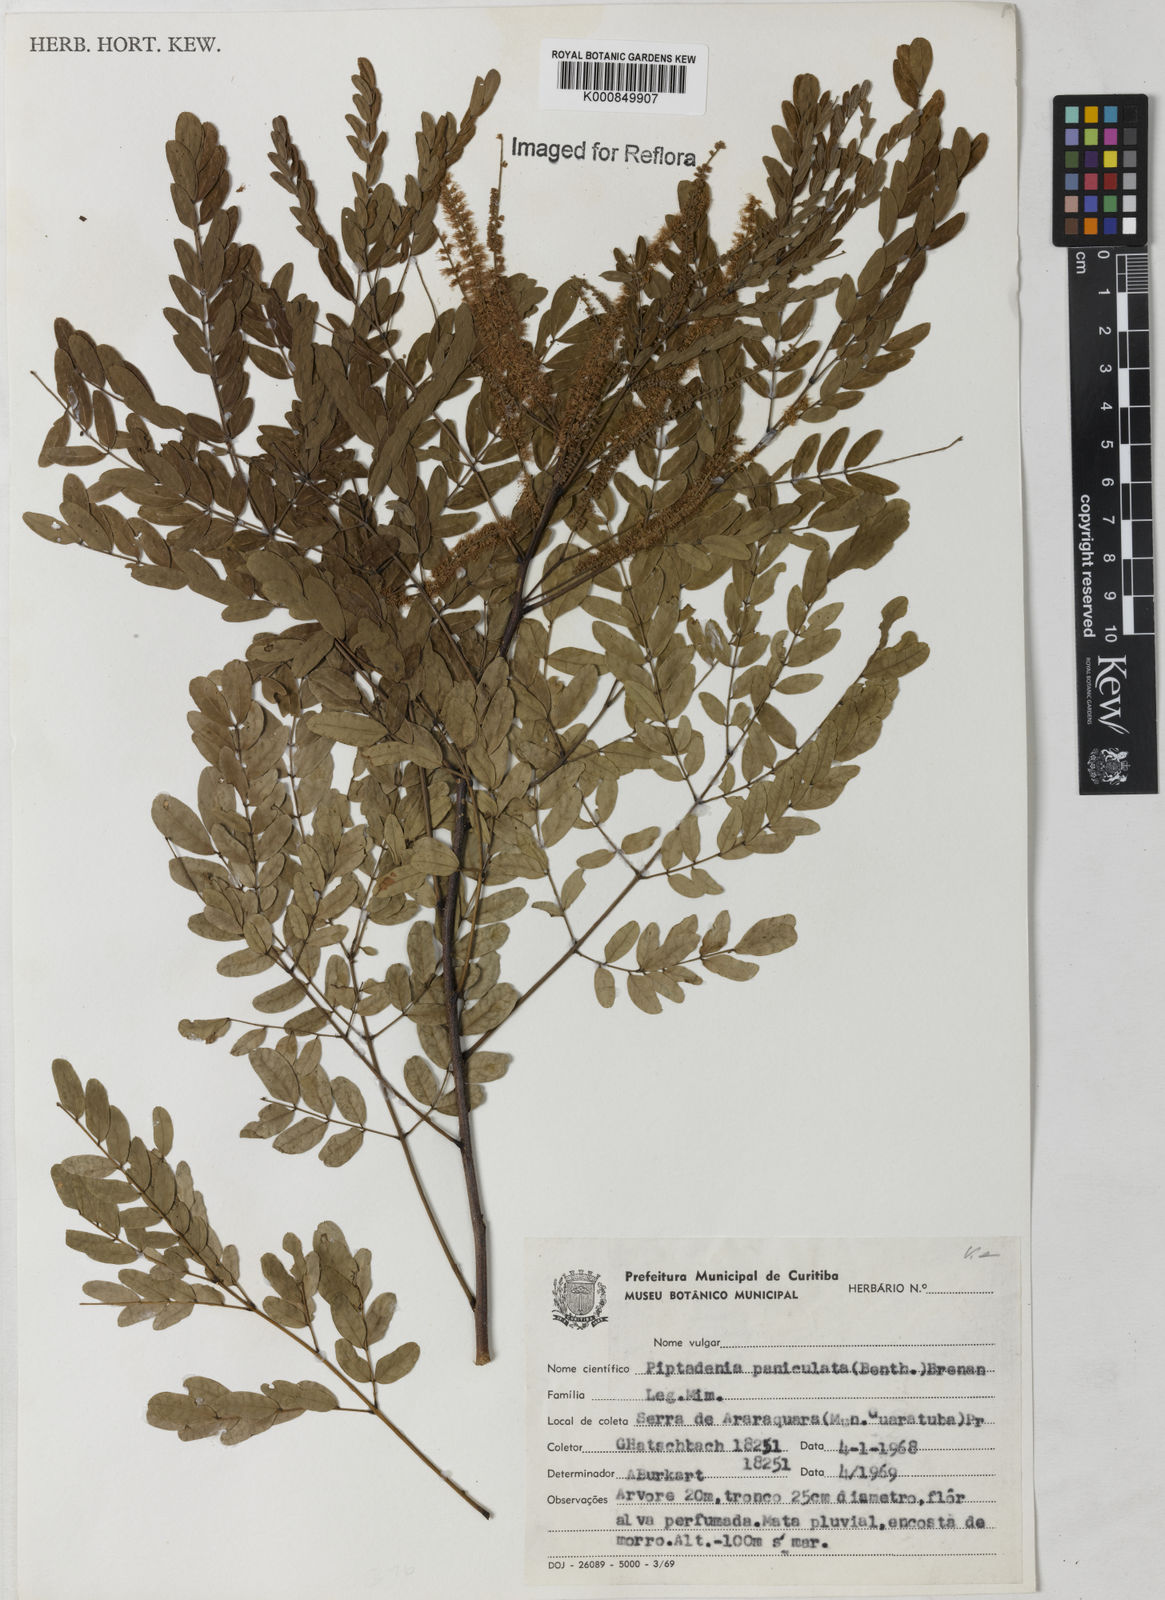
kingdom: Plantae
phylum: Tracheophyta
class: Magnoliopsida
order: Fabales
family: Fabaceae
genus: Piptadenia
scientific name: Piptadenia paniculata
